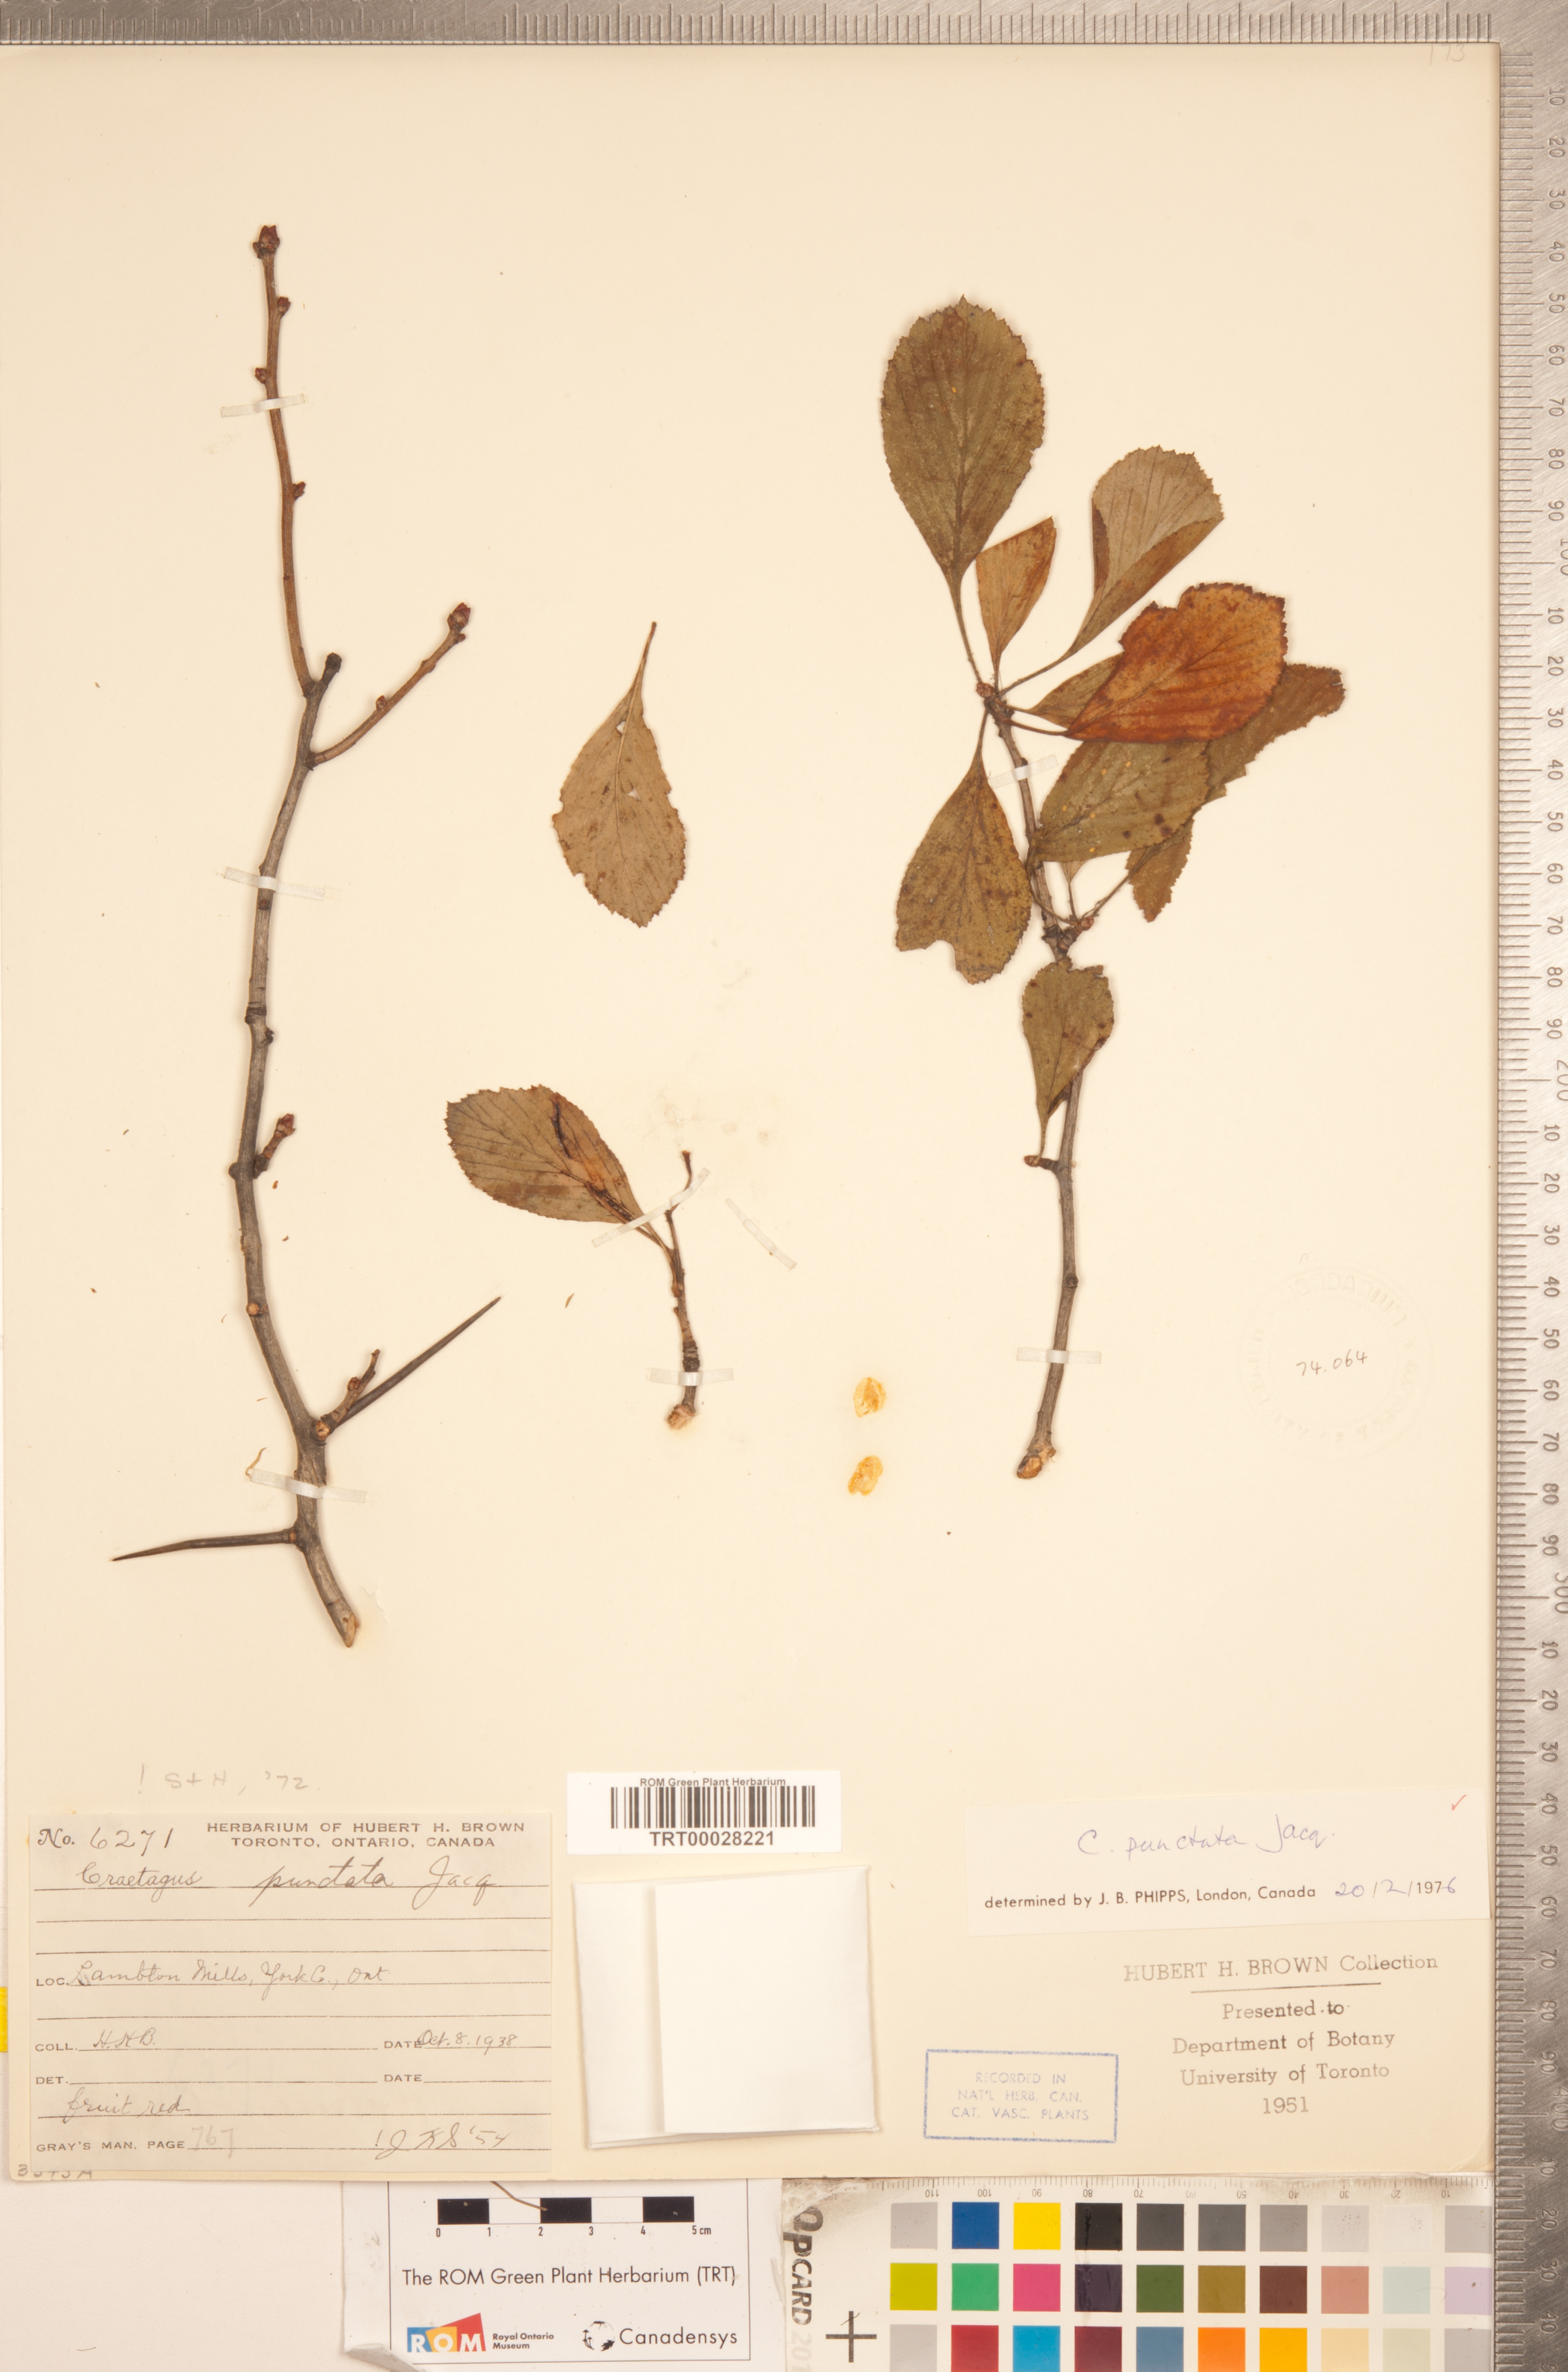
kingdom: Plantae
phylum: Tracheophyta
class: Magnoliopsida
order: Rosales
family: Rosaceae
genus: Crataegus
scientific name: Crataegus punctata
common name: Dotted hawthorn
